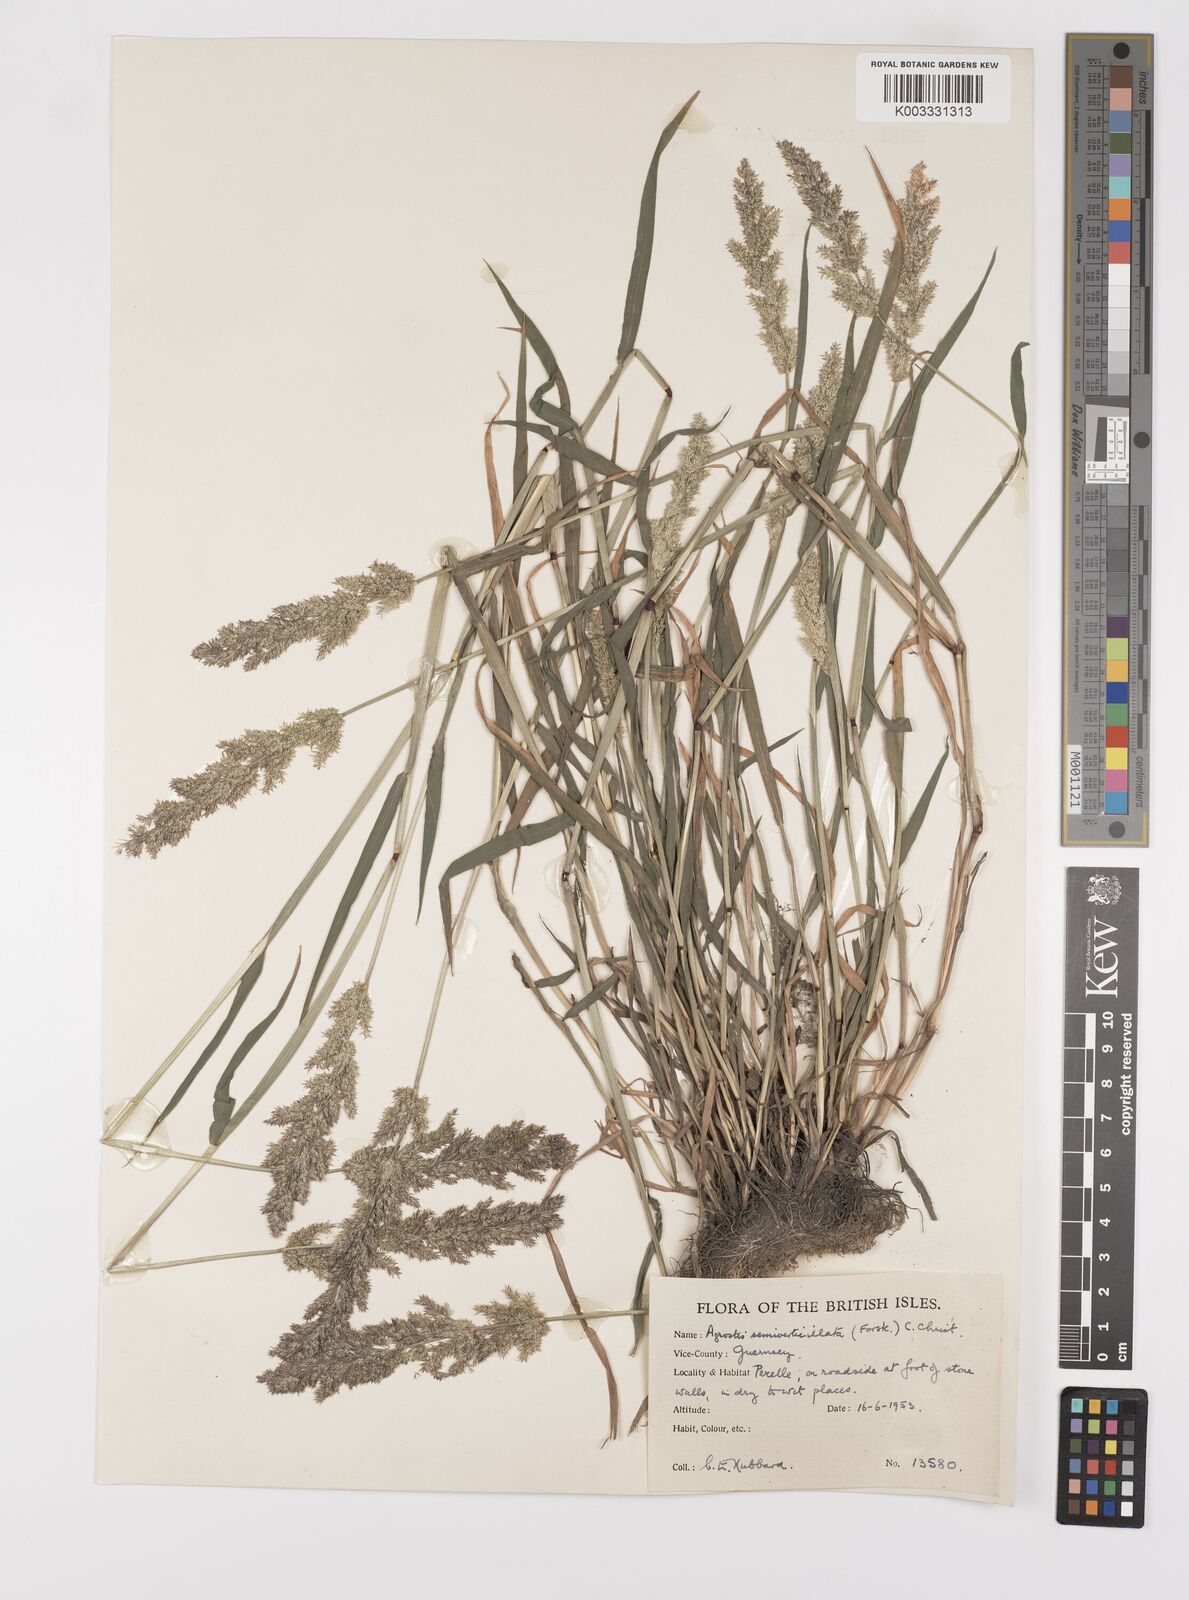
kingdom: Plantae
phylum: Tracheophyta
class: Liliopsida
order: Poales
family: Poaceae
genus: Polypogon
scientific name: Polypogon viridis
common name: Water bent
